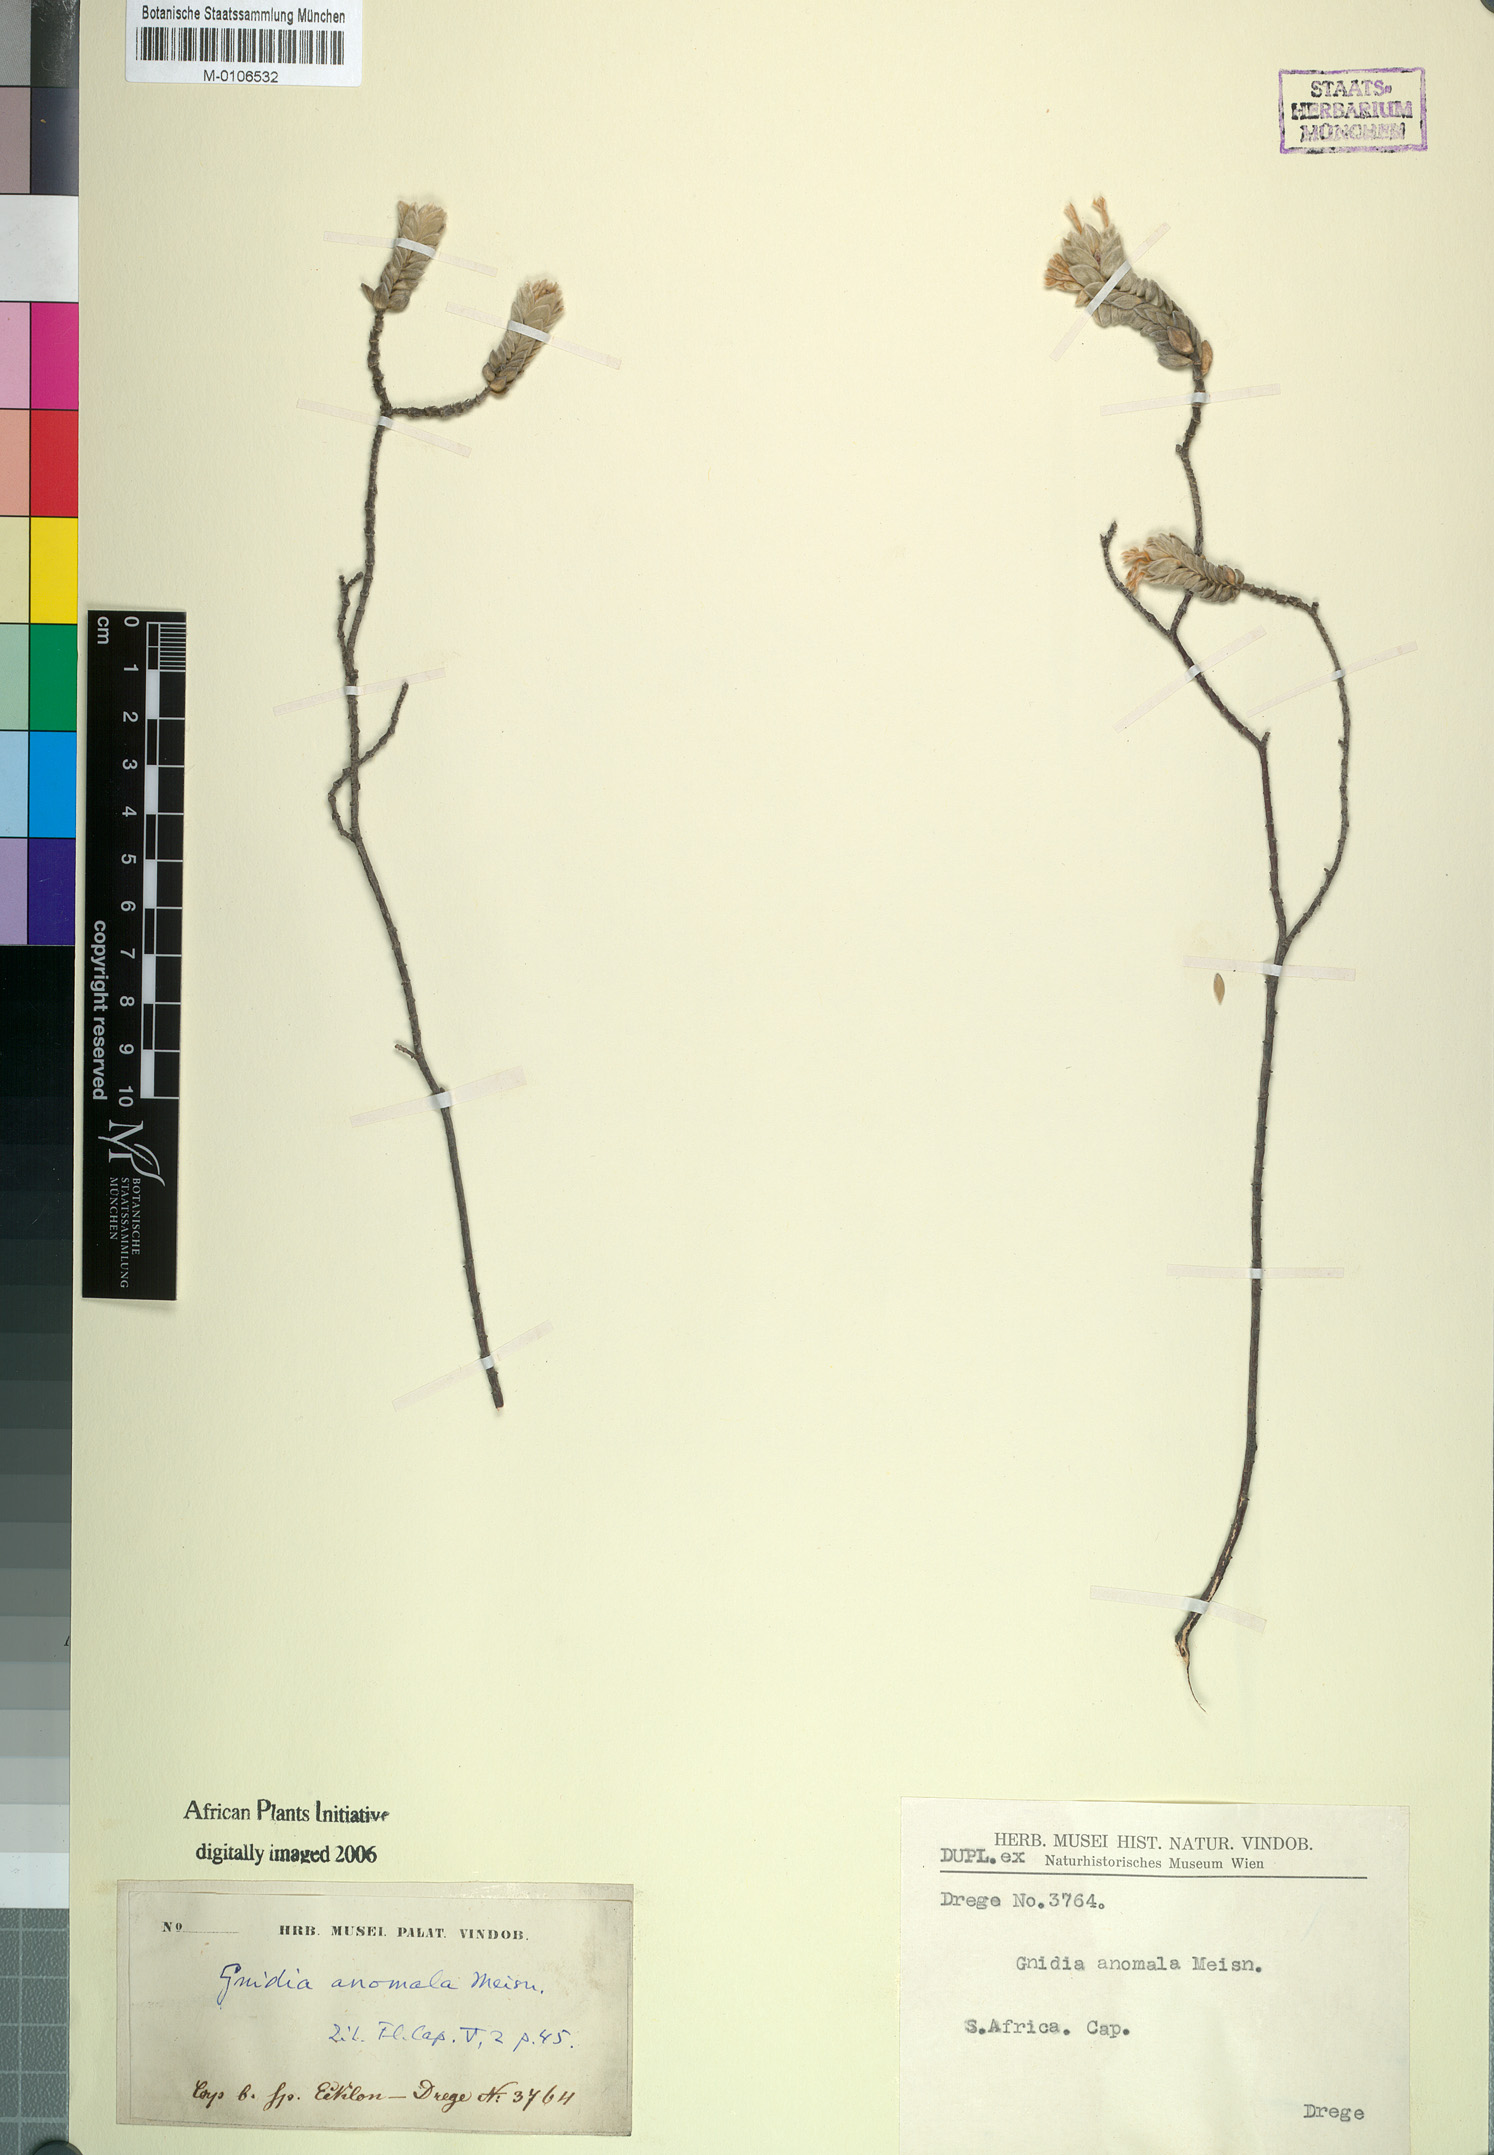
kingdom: Plantae
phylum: Tracheophyta
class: Magnoliopsida
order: Malvales
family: Thymelaeaceae
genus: Gnidia
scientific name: Gnidia anomala
